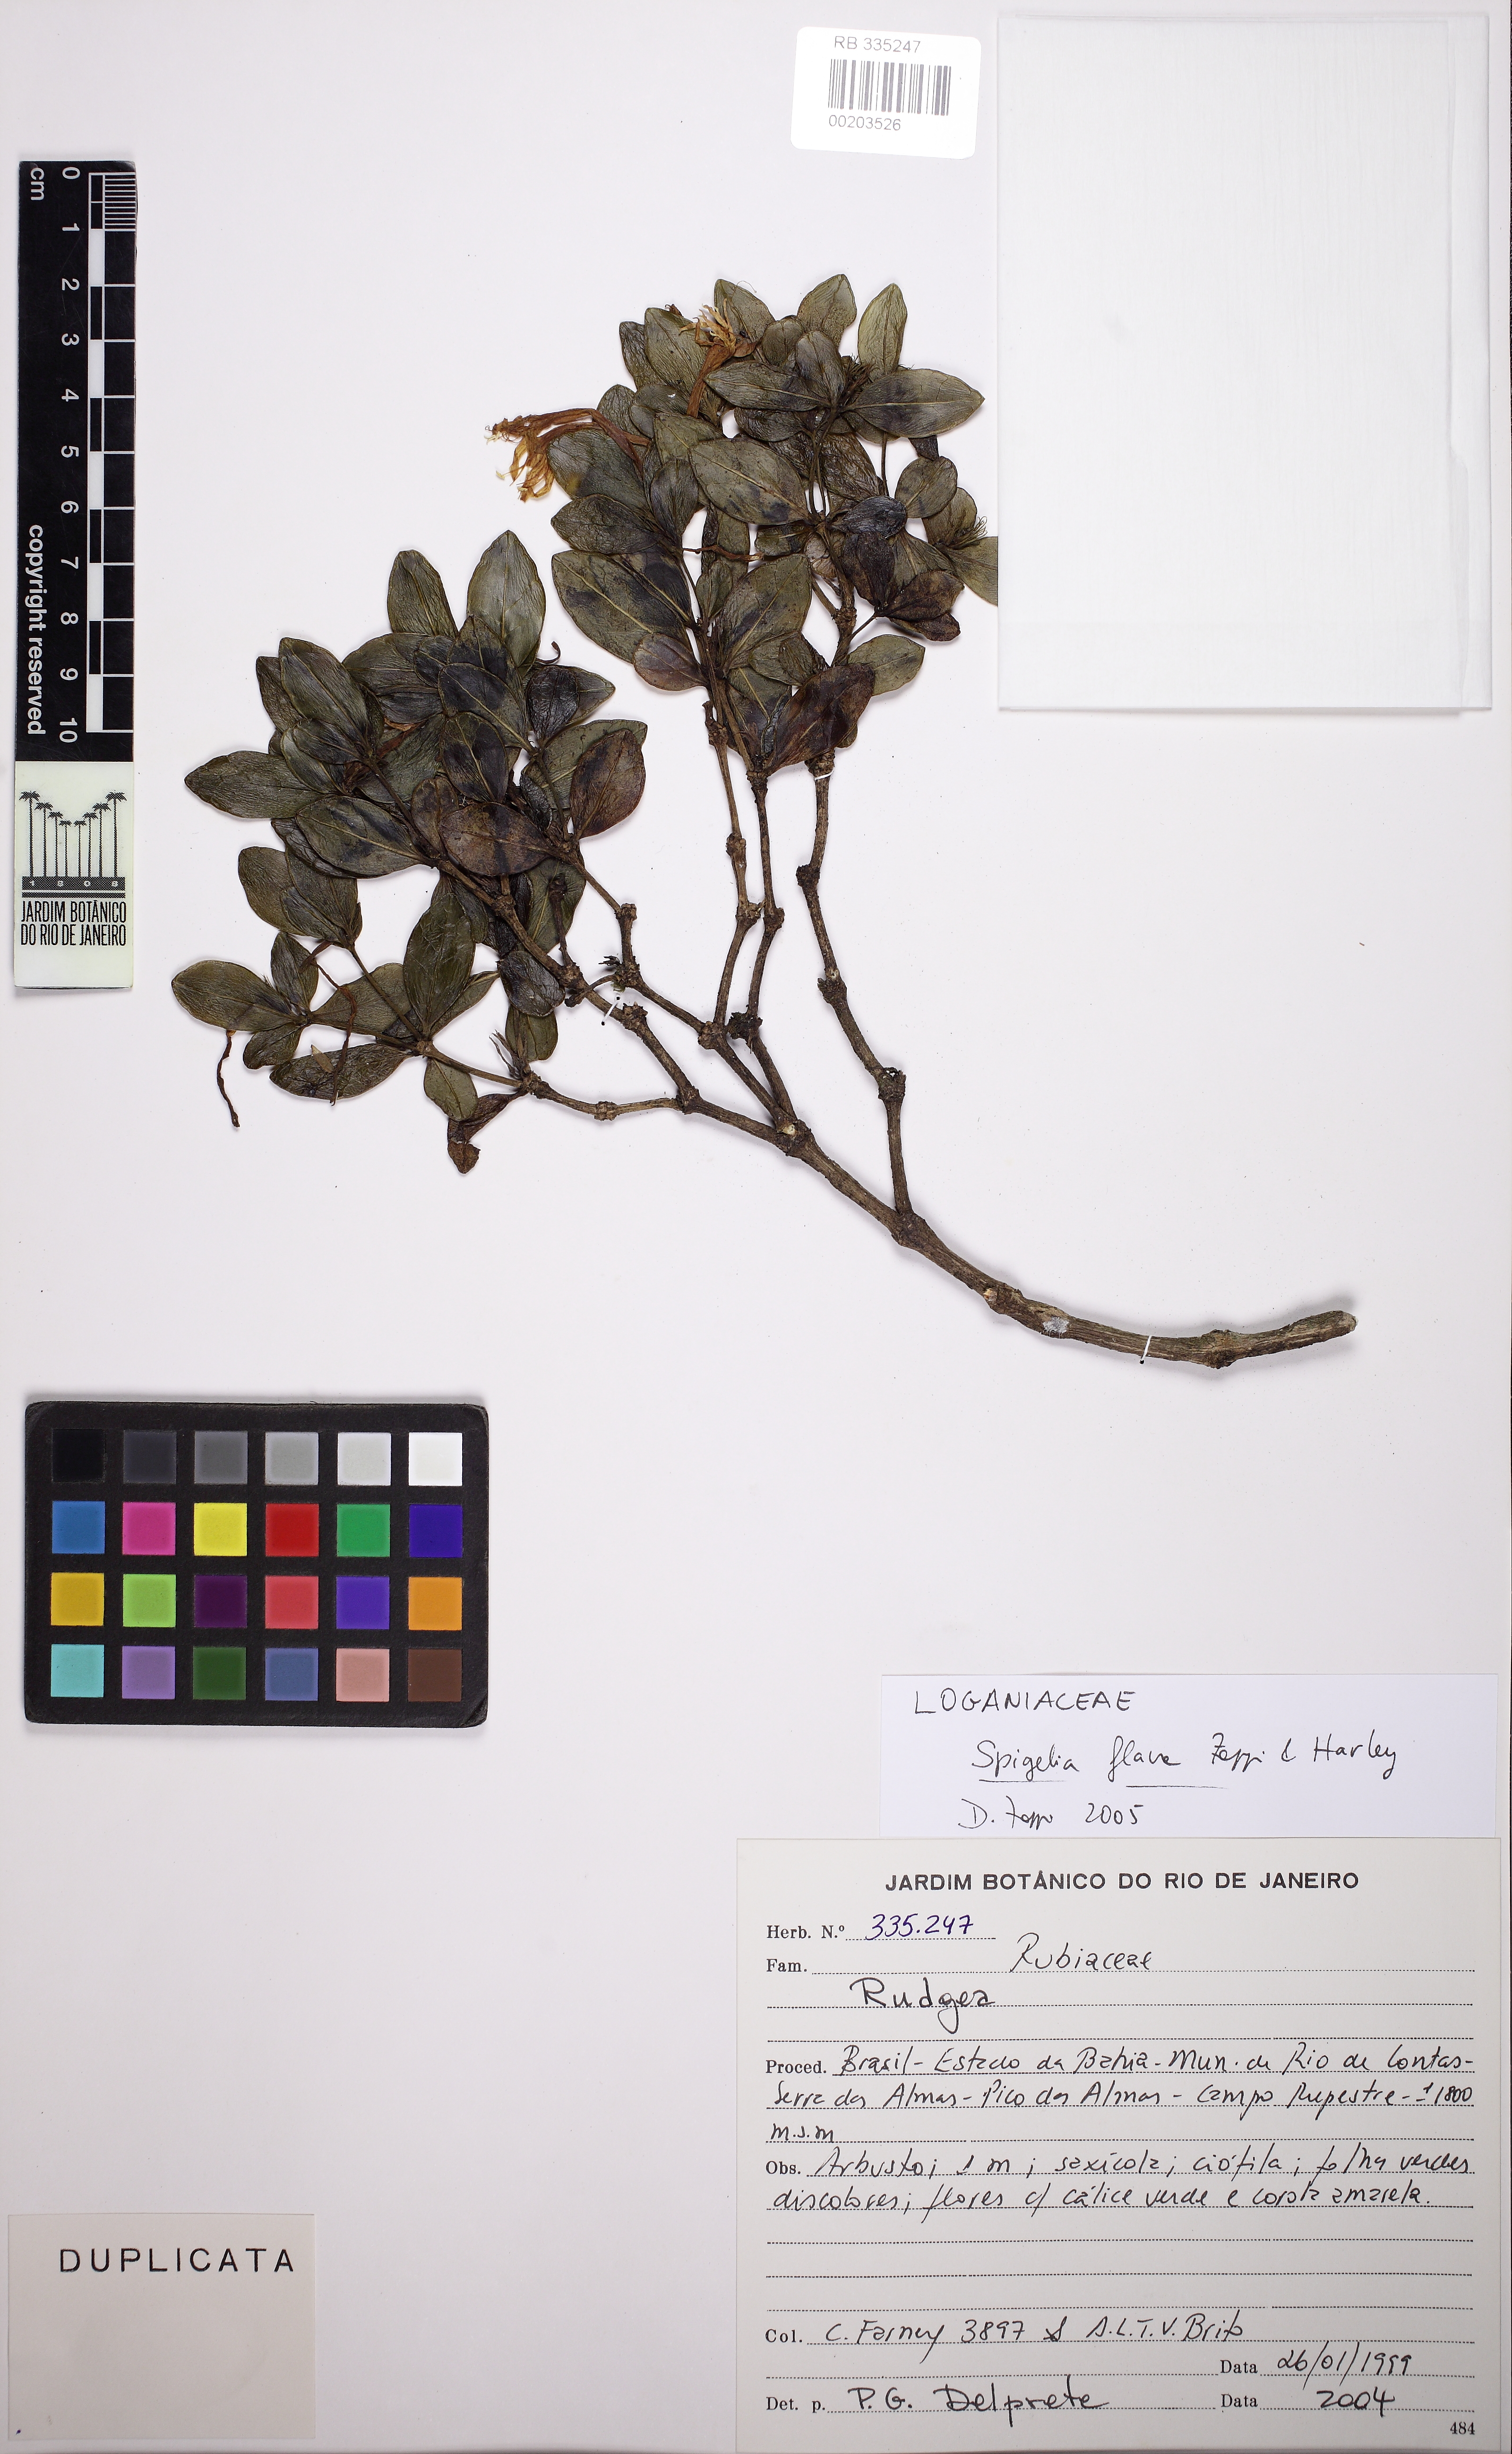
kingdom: Plantae
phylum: Tracheophyta
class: Magnoliopsida
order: Gentianales
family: Loganiaceae
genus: Spigelia
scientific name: Spigelia flava
